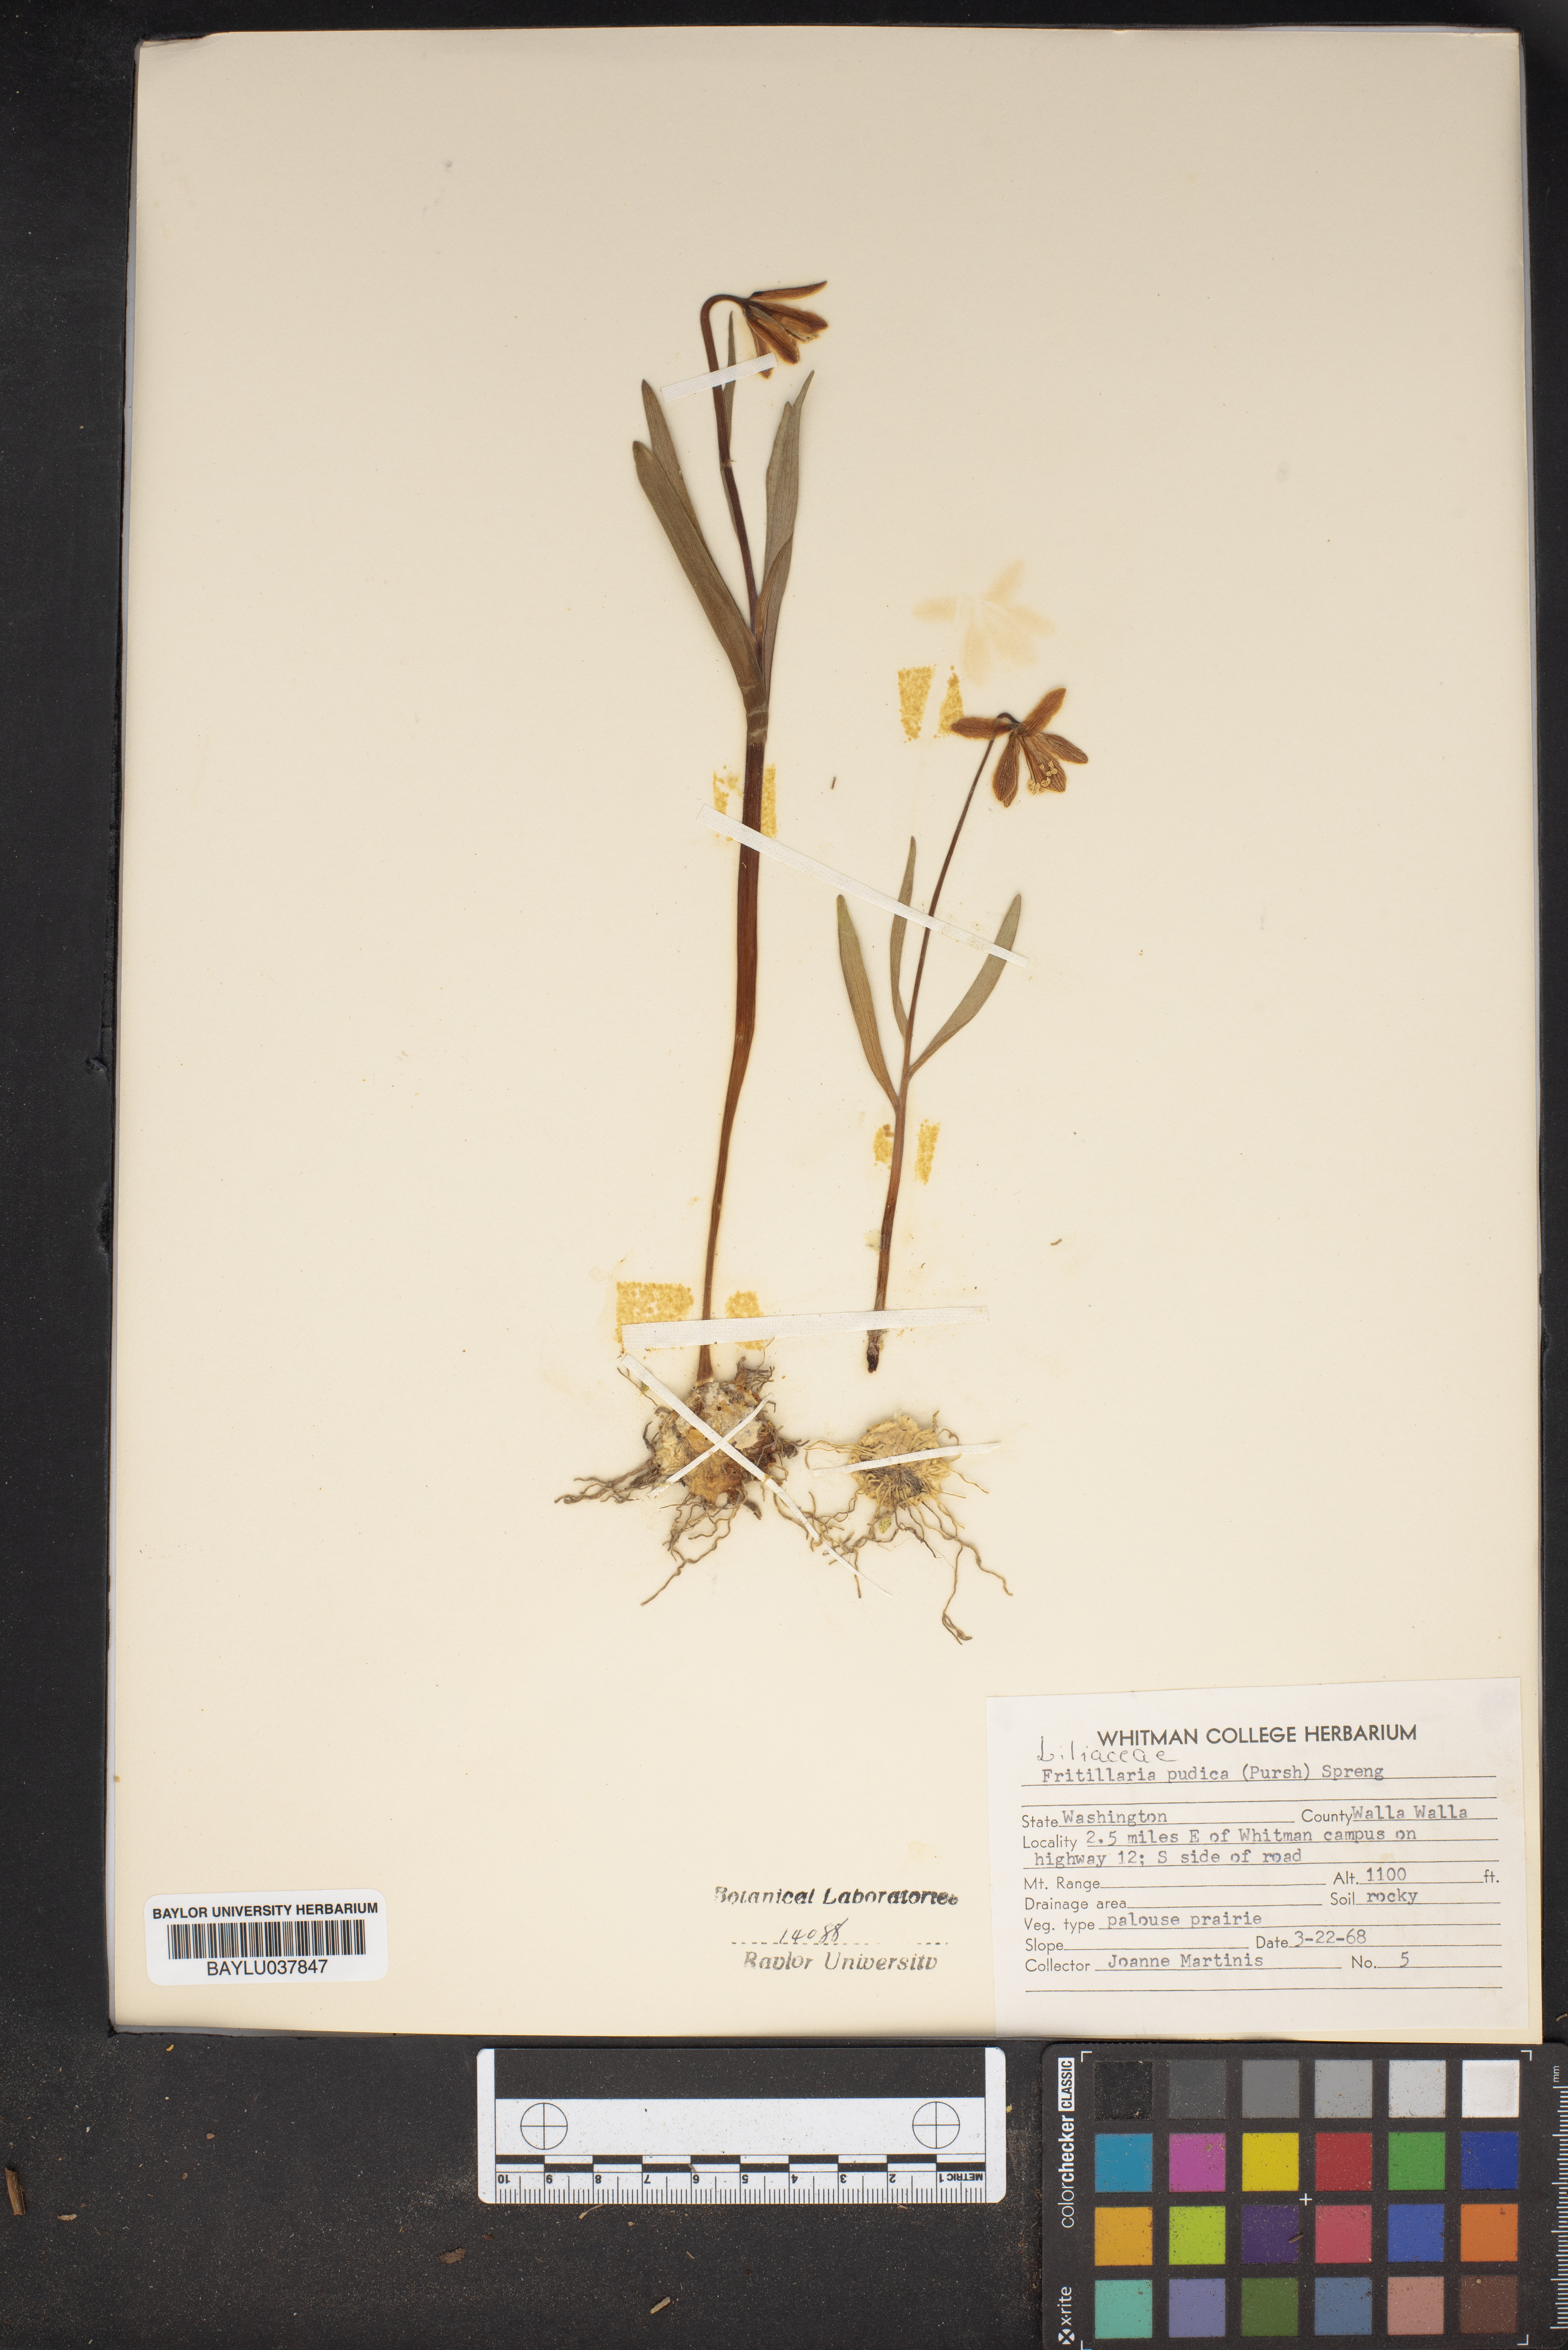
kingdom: Plantae
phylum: Tracheophyta
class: Liliopsida
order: Liliales
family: Liliaceae
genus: Fritillaria
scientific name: Fritillaria pudica
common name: Yellow fritillary
